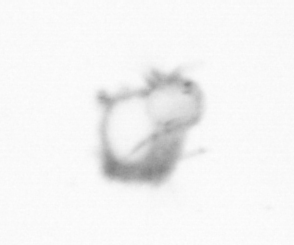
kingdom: Animalia
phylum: Annelida
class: Polychaeta
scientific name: Polychaeta
